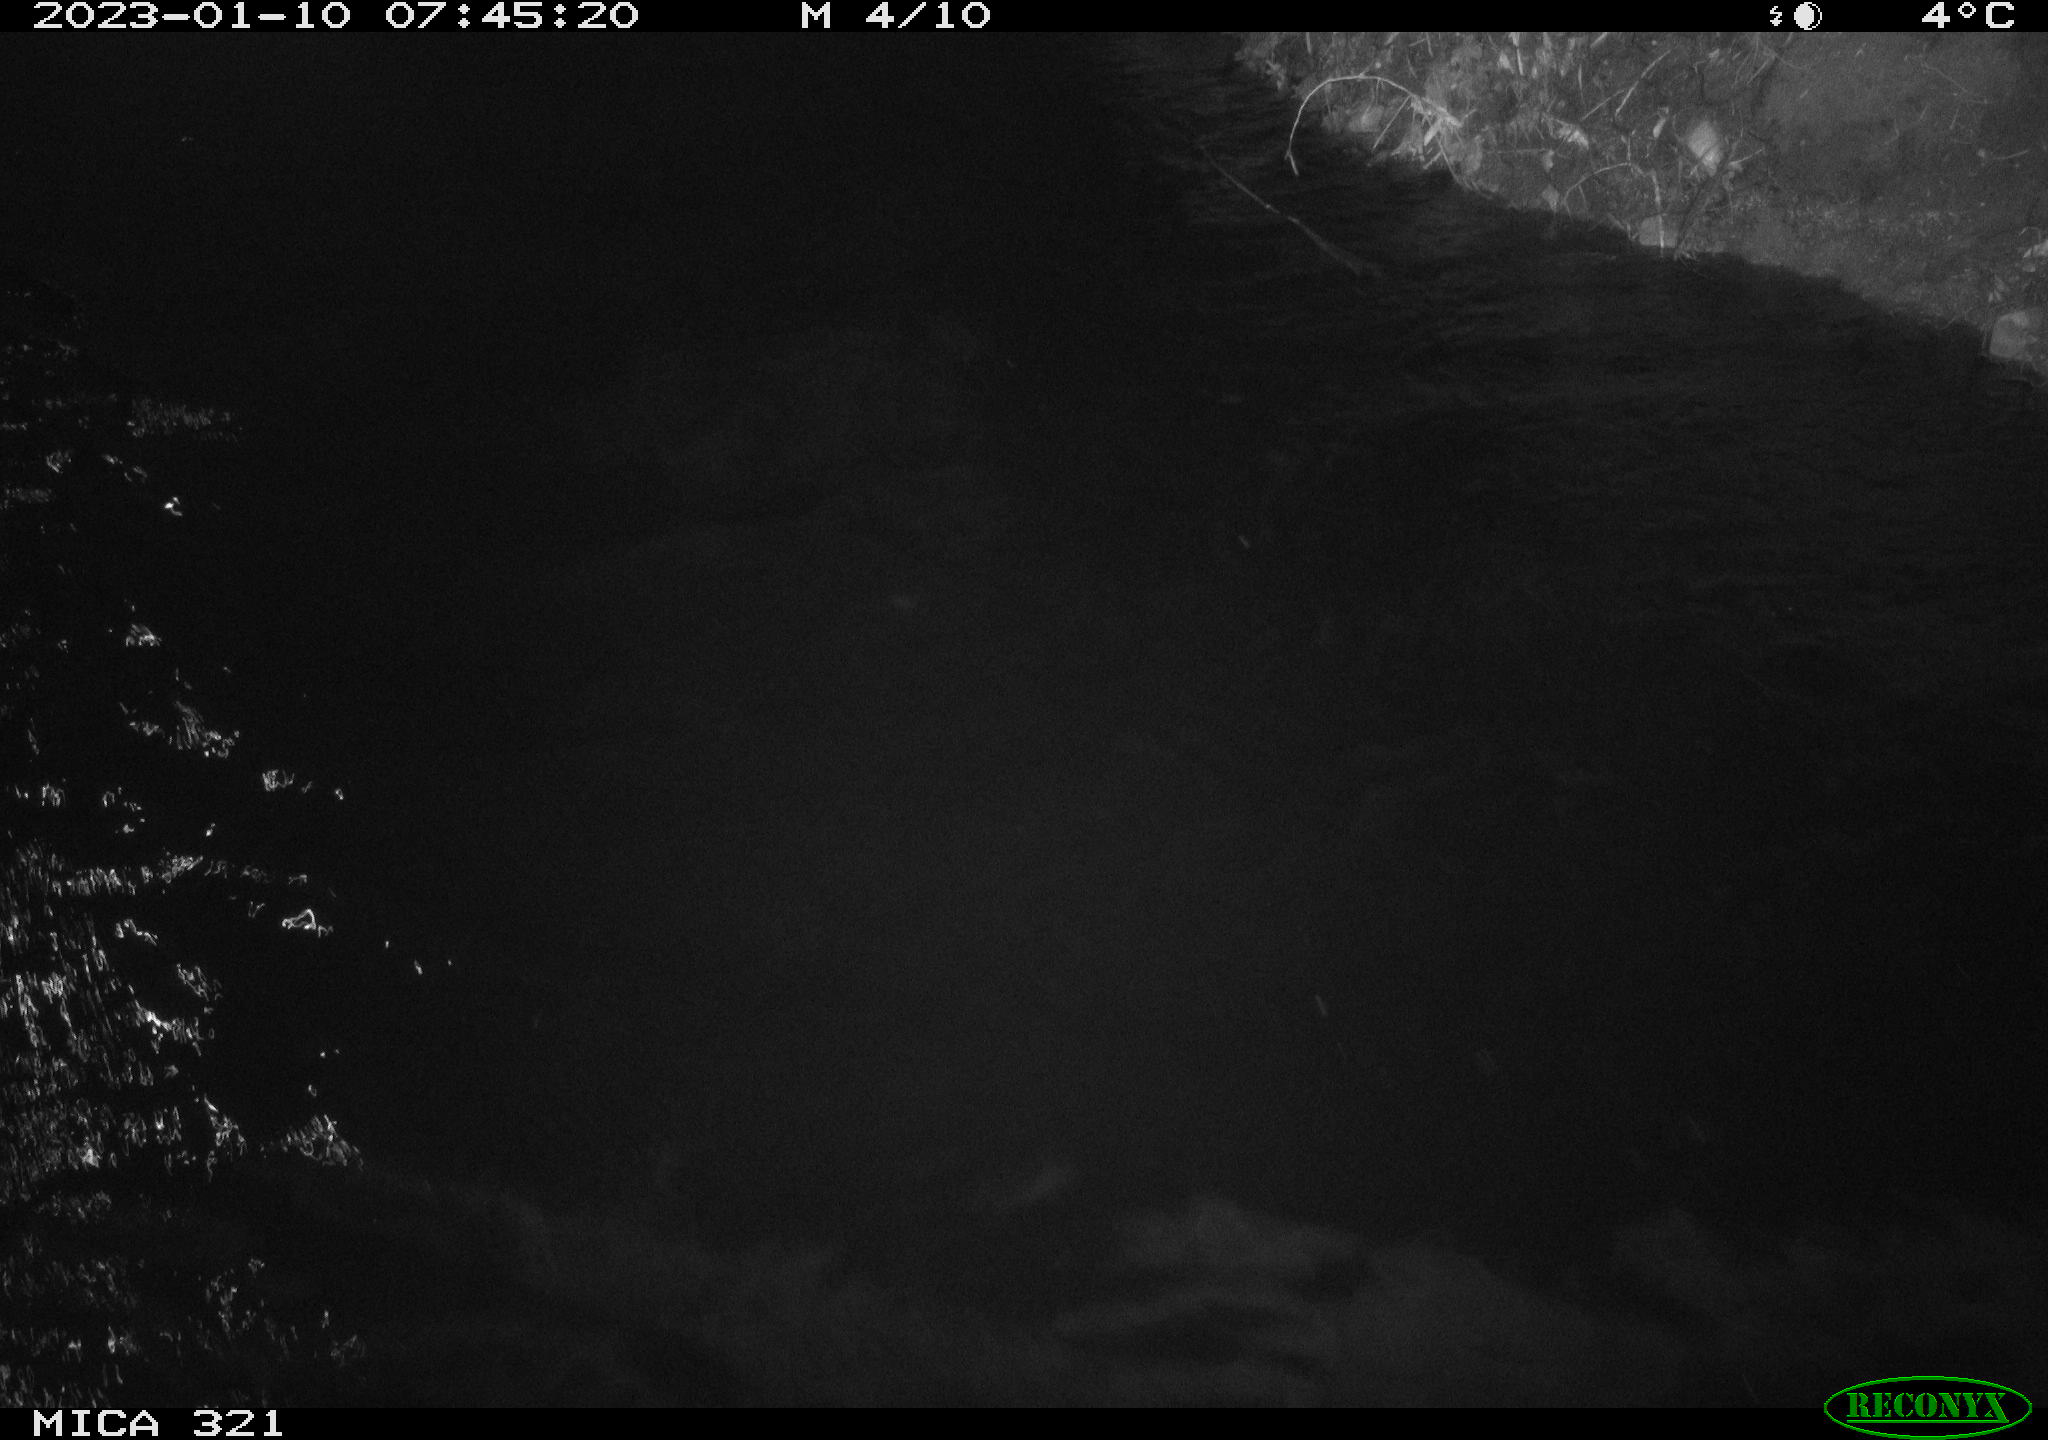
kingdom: Animalia
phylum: Chordata
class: Mammalia
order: Rodentia
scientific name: Rodentia
